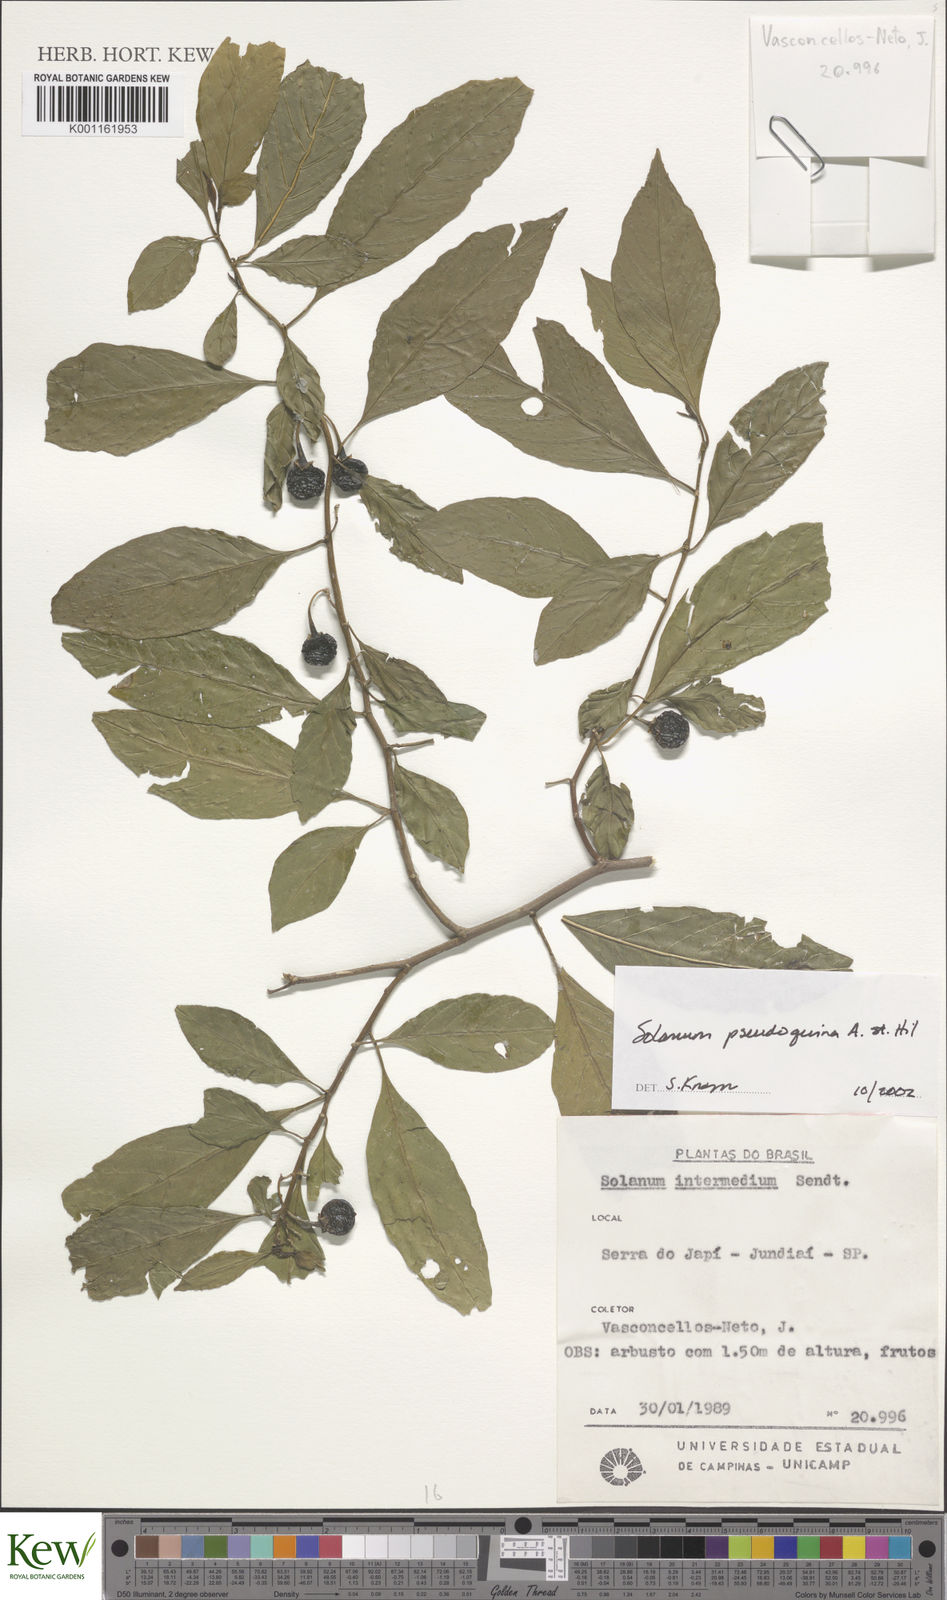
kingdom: Plantae
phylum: Tracheophyta
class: Magnoliopsida
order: Solanales
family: Solanaceae
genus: Solanum
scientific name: Solanum pseudoquina
